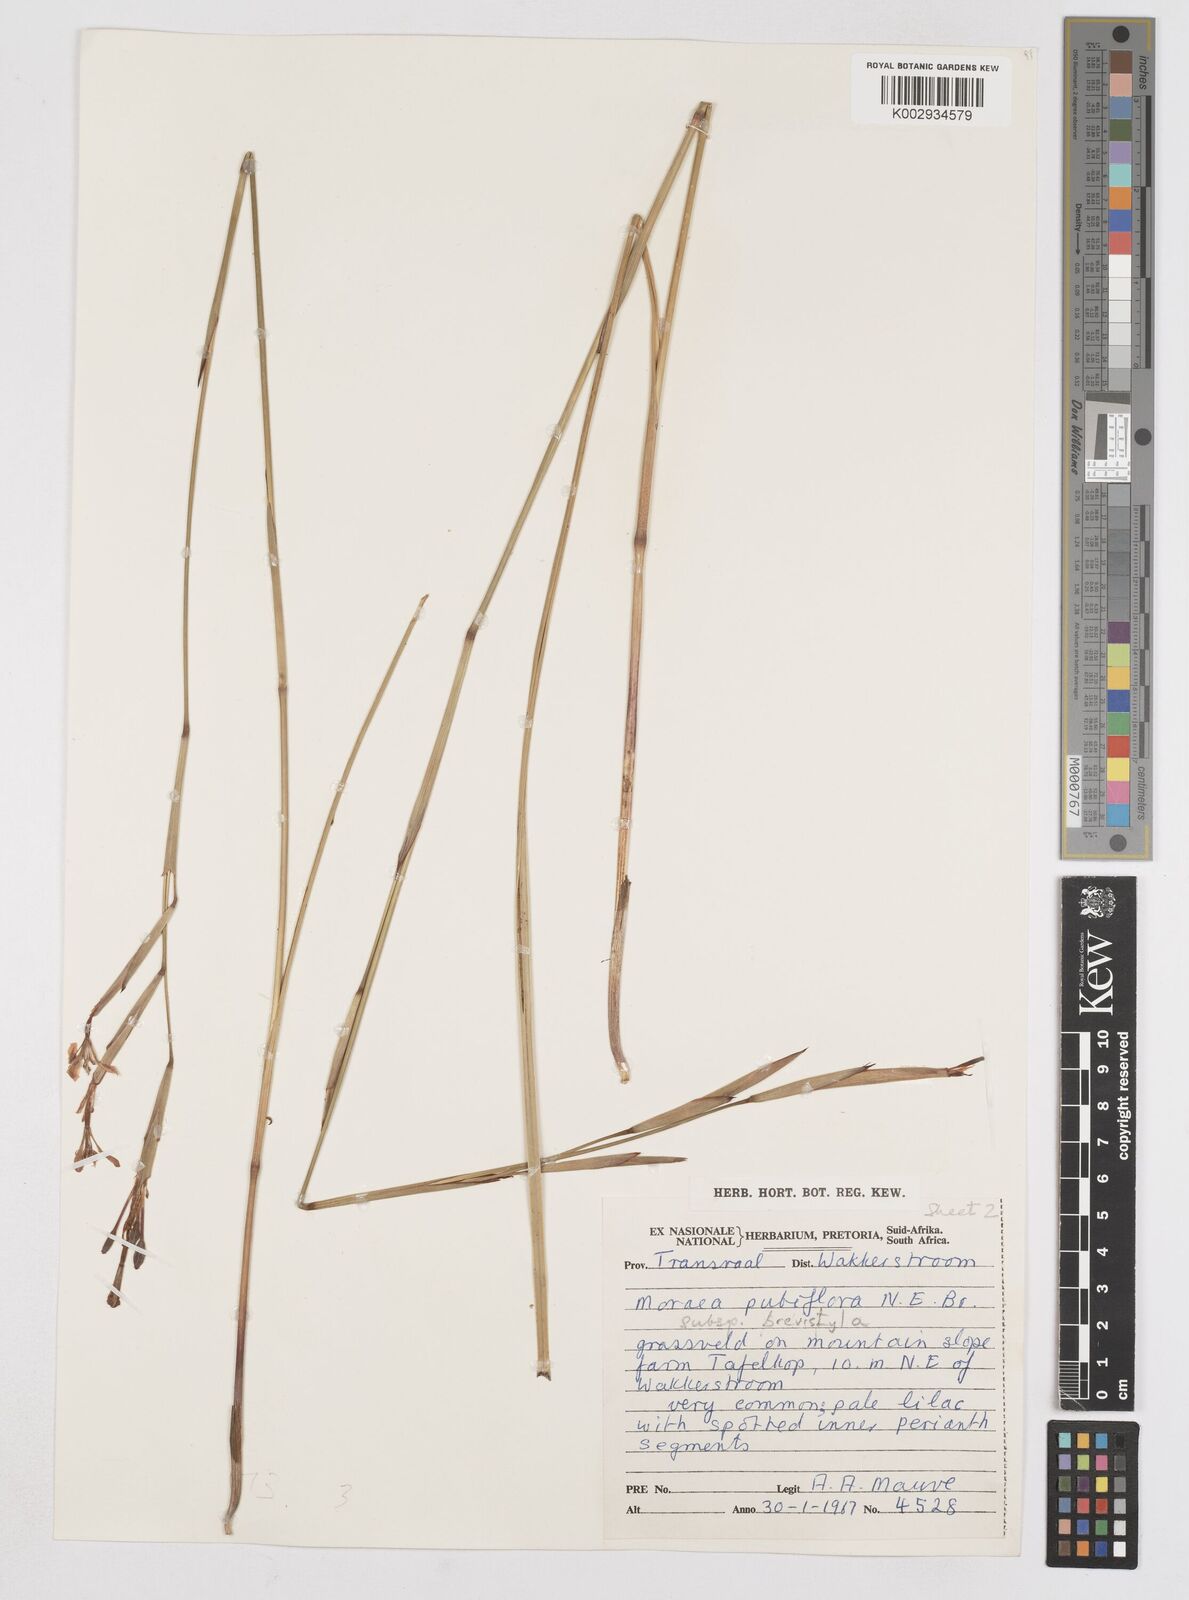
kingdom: Plantae
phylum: Tracheophyta
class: Liliopsida
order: Asparagales
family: Iridaceae
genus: Moraea
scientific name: Moraea brevistyla
